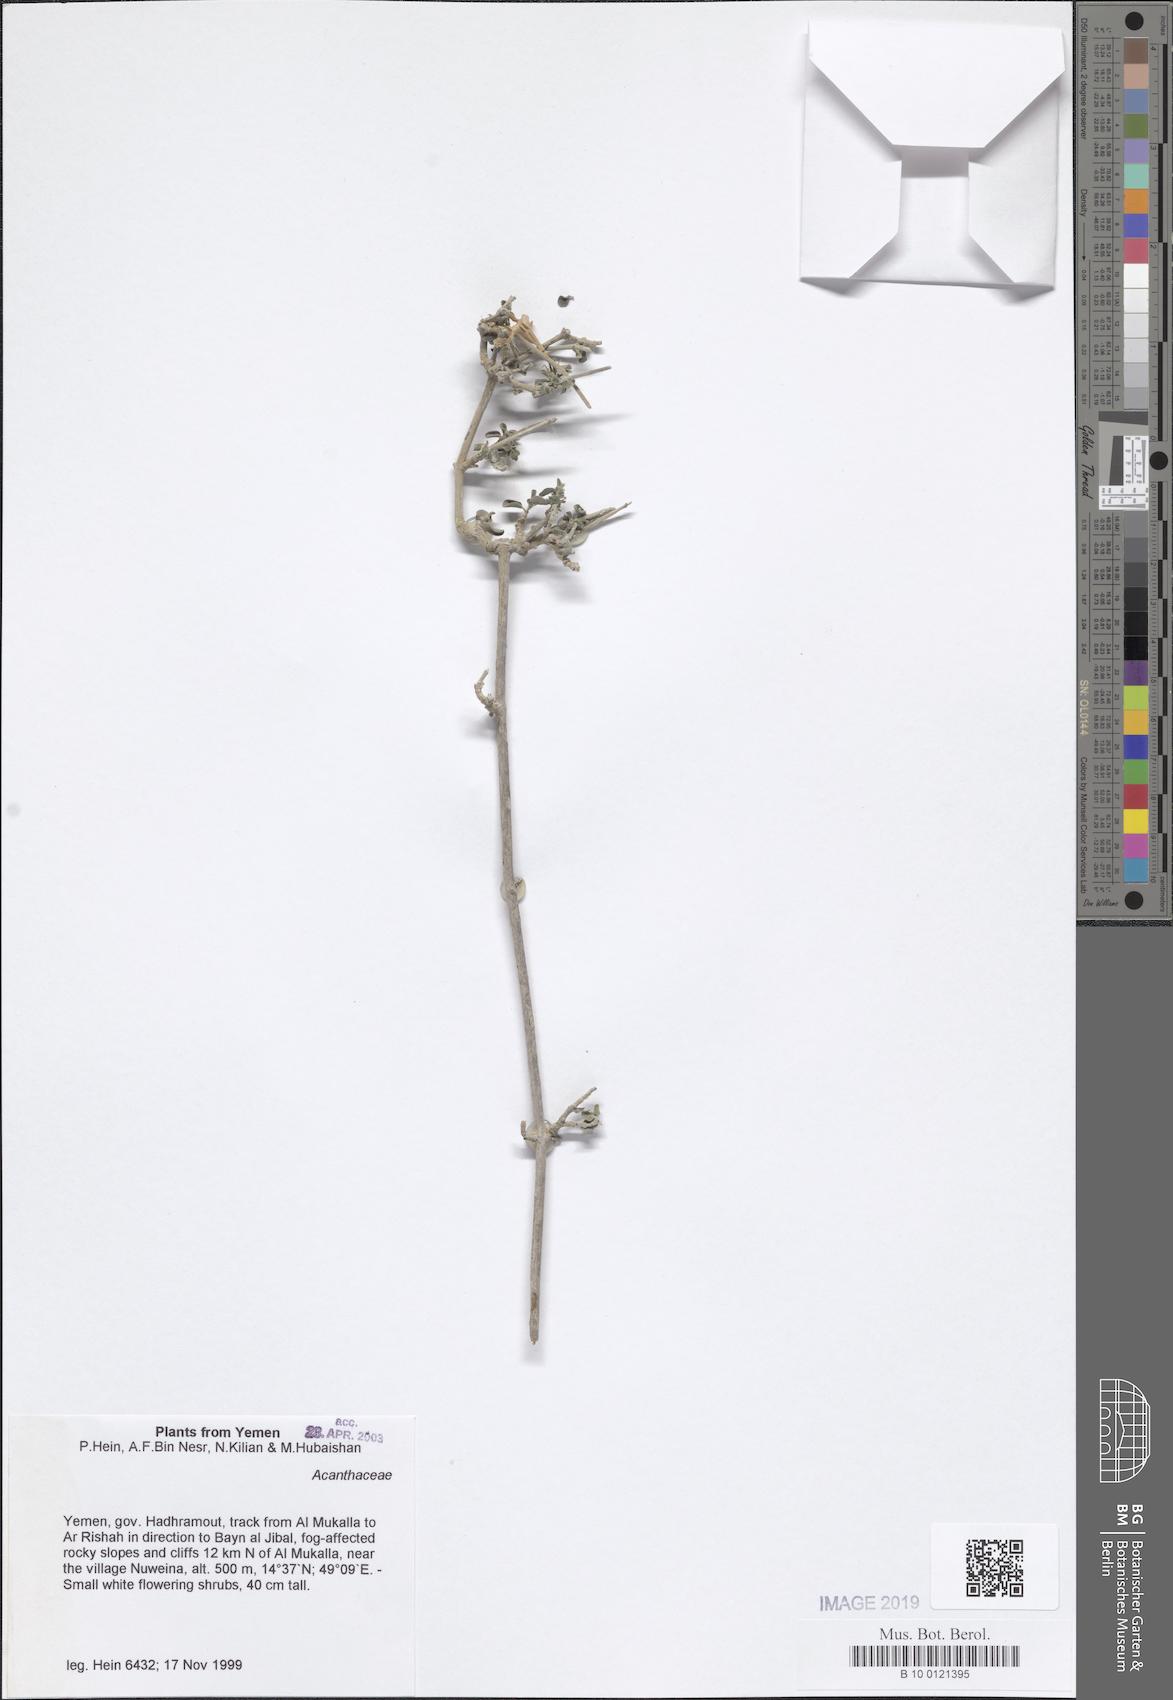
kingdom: Plantae
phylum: Tracheophyta
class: Magnoliopsida
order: Lamiales
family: Acanthaceae
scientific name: Acanthaceae
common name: Acanthaceae
